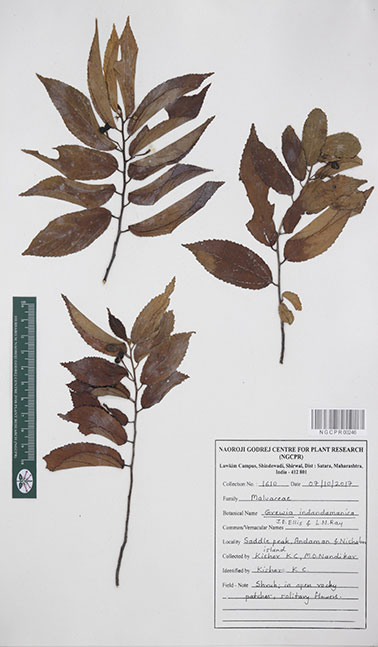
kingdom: Plantae
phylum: Tracheophyta
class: Magnoliopsida
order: Malvales
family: Malvaceae
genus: Grewia
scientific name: Grewia indandamanica
